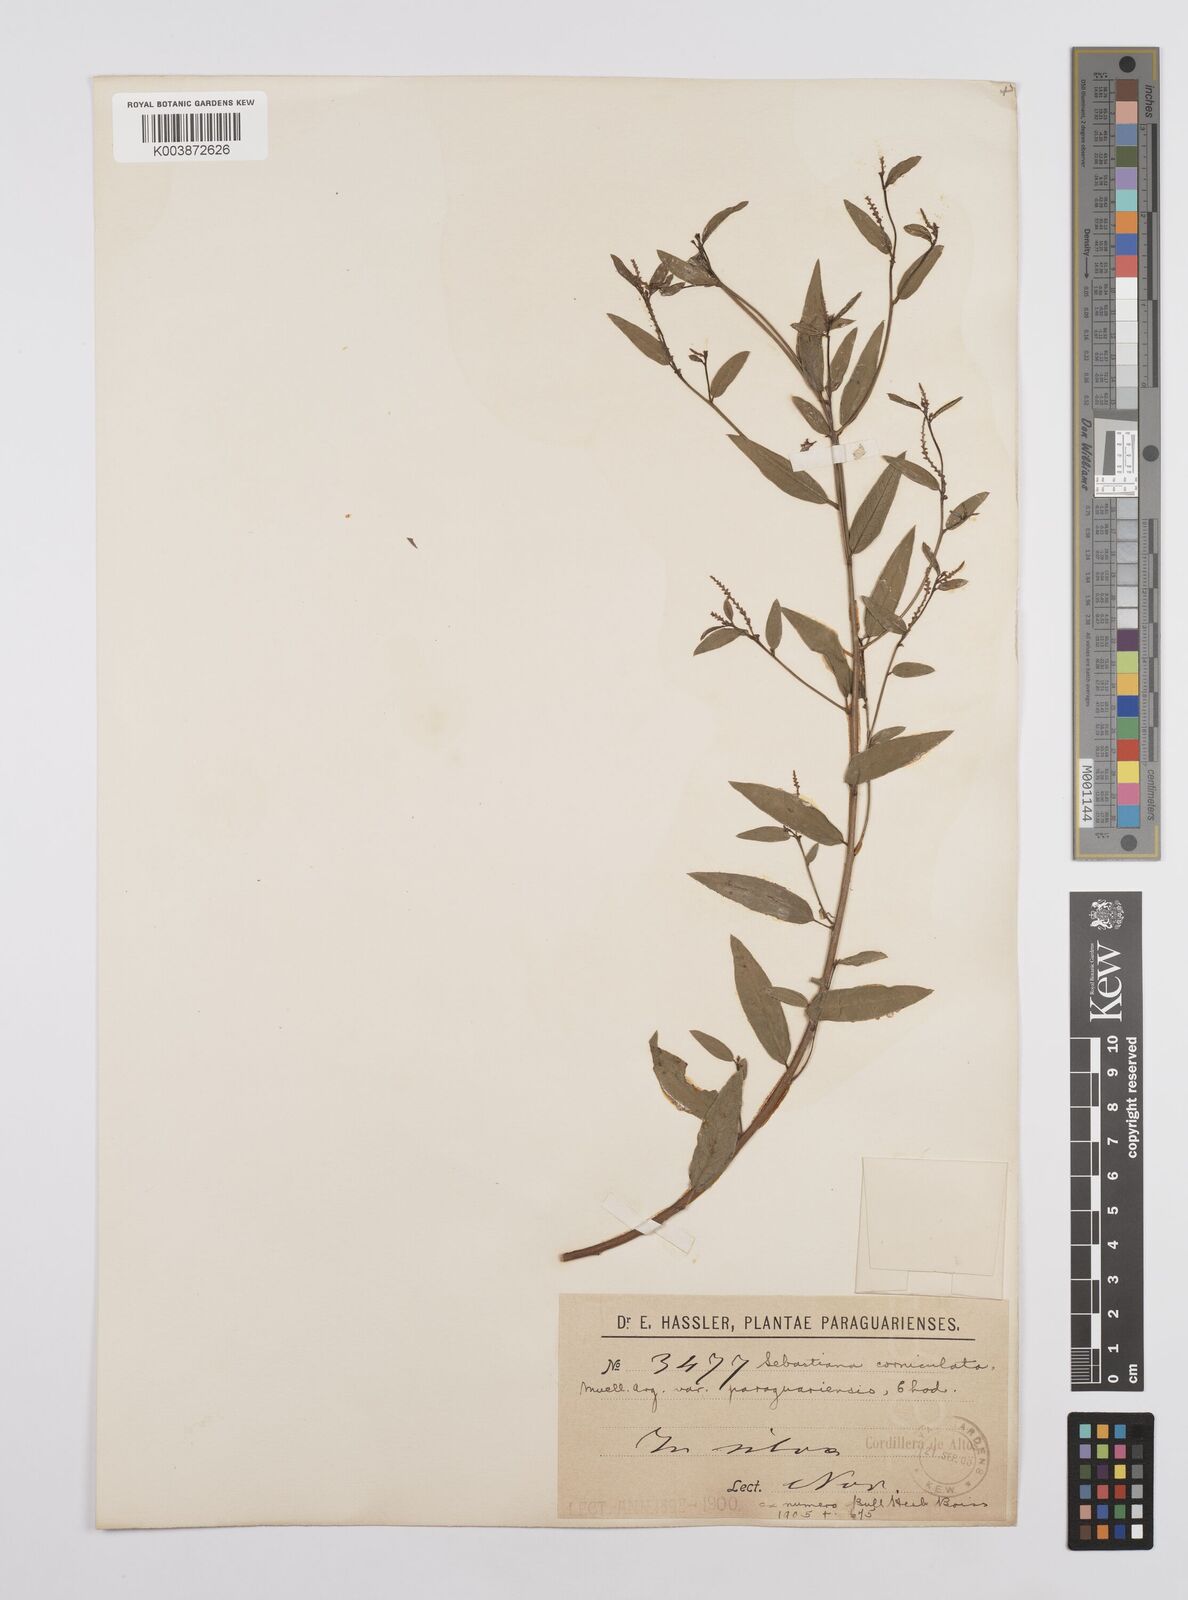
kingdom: Plantae
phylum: Tracheophyta
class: Magnoliopsida
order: Malpighiales
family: Euphorbiaceae
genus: Microstachys
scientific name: Microstachys hispida
